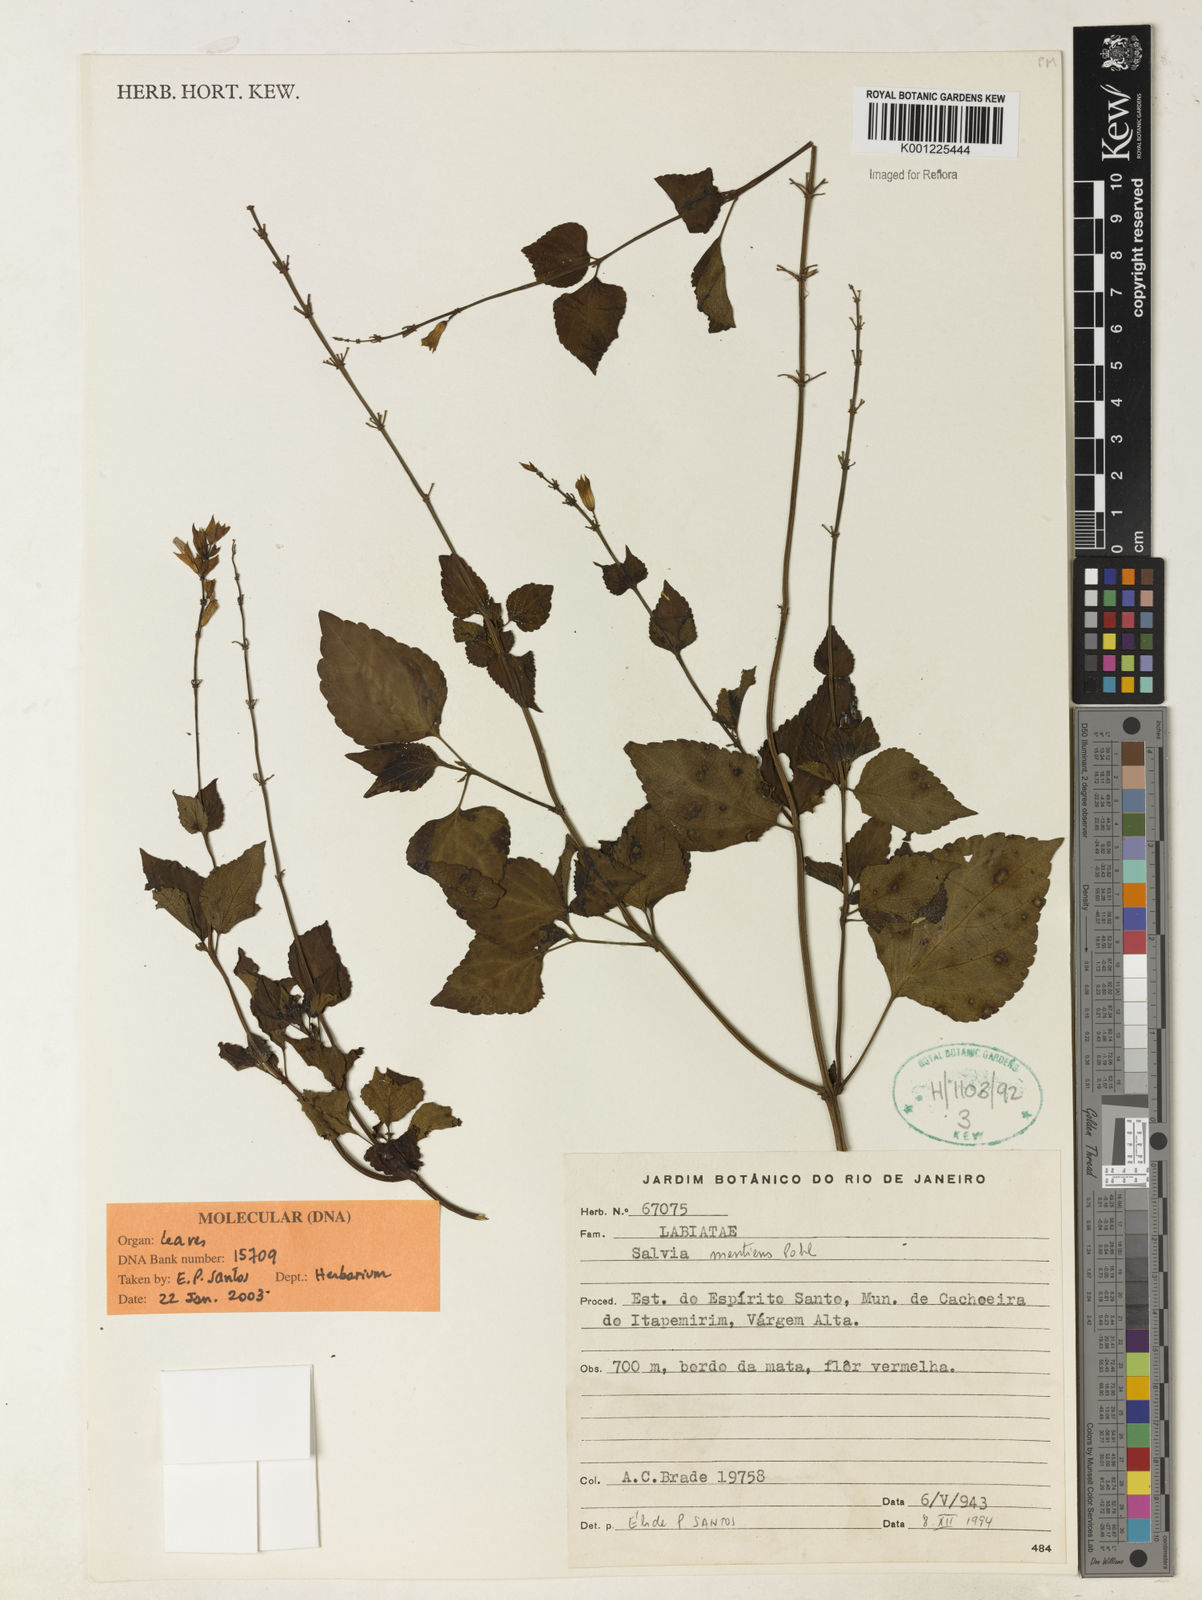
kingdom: Plantae
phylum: Tracheophyta
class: Magnoliopsida
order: Lamiales
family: Lamiaceae
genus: Salvia
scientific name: Salvia mentiens
